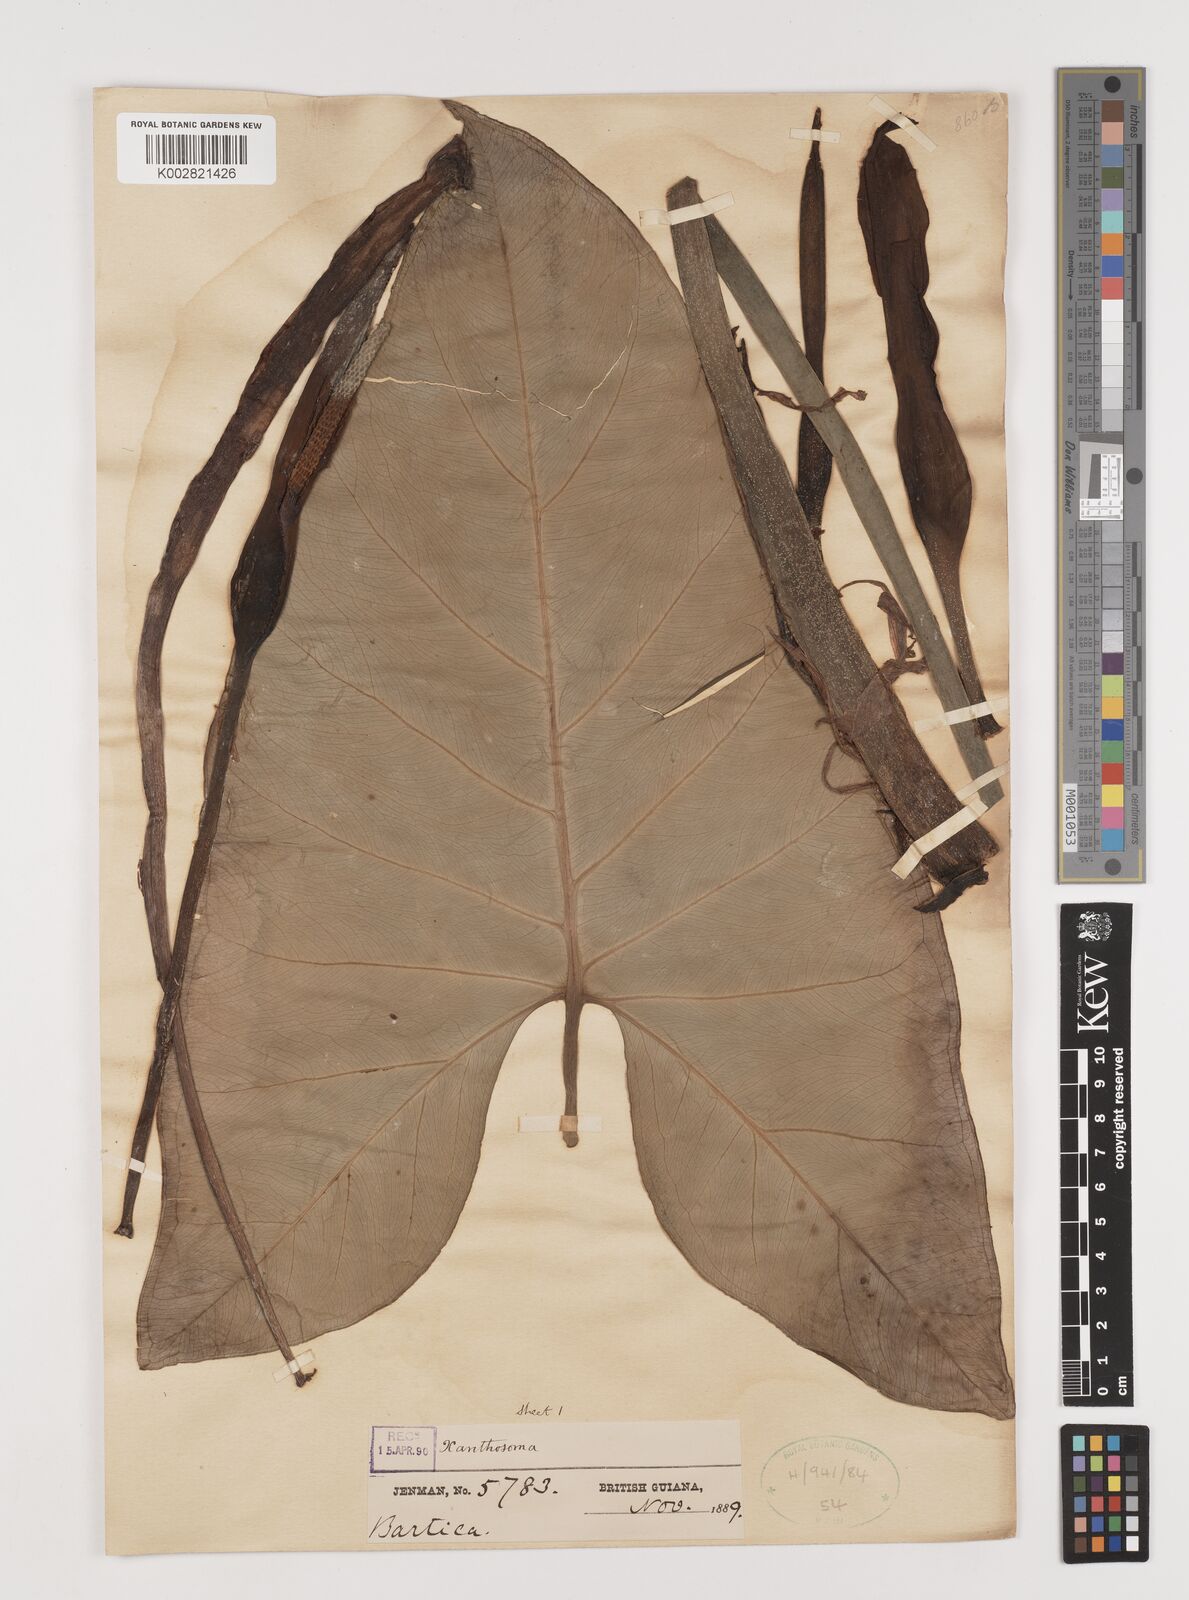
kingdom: Plantae
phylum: Tracheophyta
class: Liliopsida
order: Alismatales
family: Araceae
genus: Xanthosoma
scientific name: Xanthosoma
